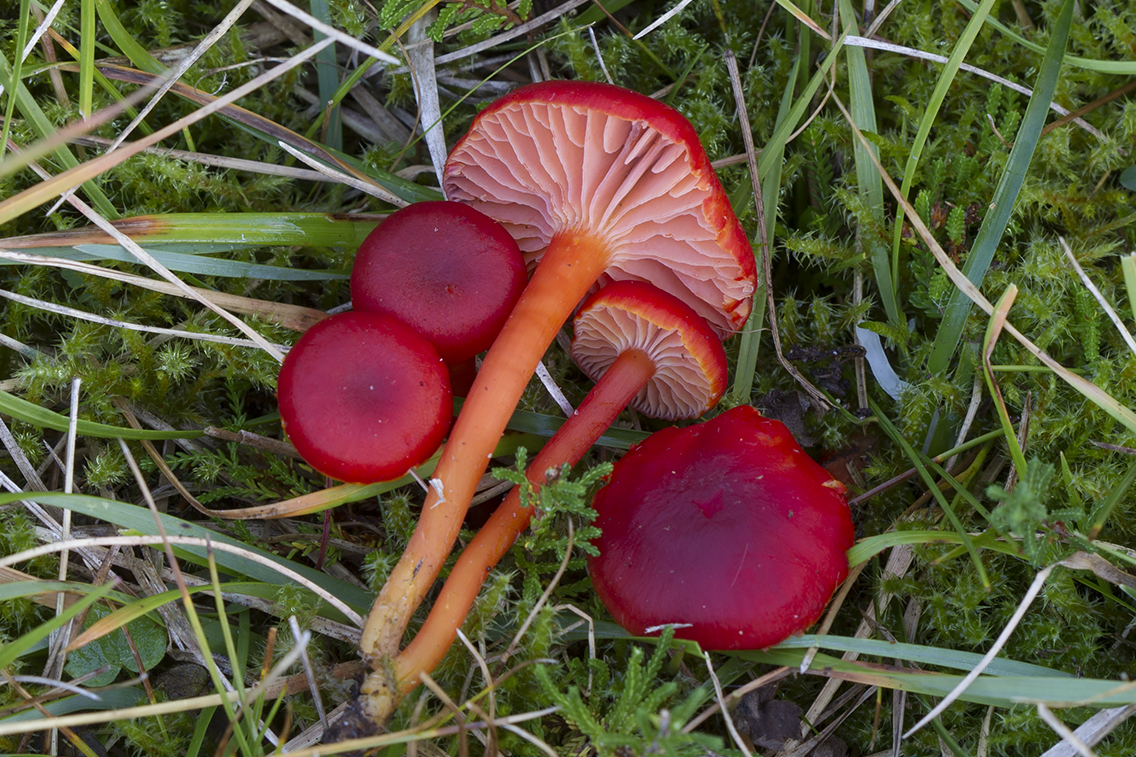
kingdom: Fungi
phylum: Basidiomycota
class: Agaricomycetes
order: Agaricales
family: Hygrophoraceae
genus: Hygrocybe
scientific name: Hygrocybe phaeococcinea
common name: sortdugget vokshat
